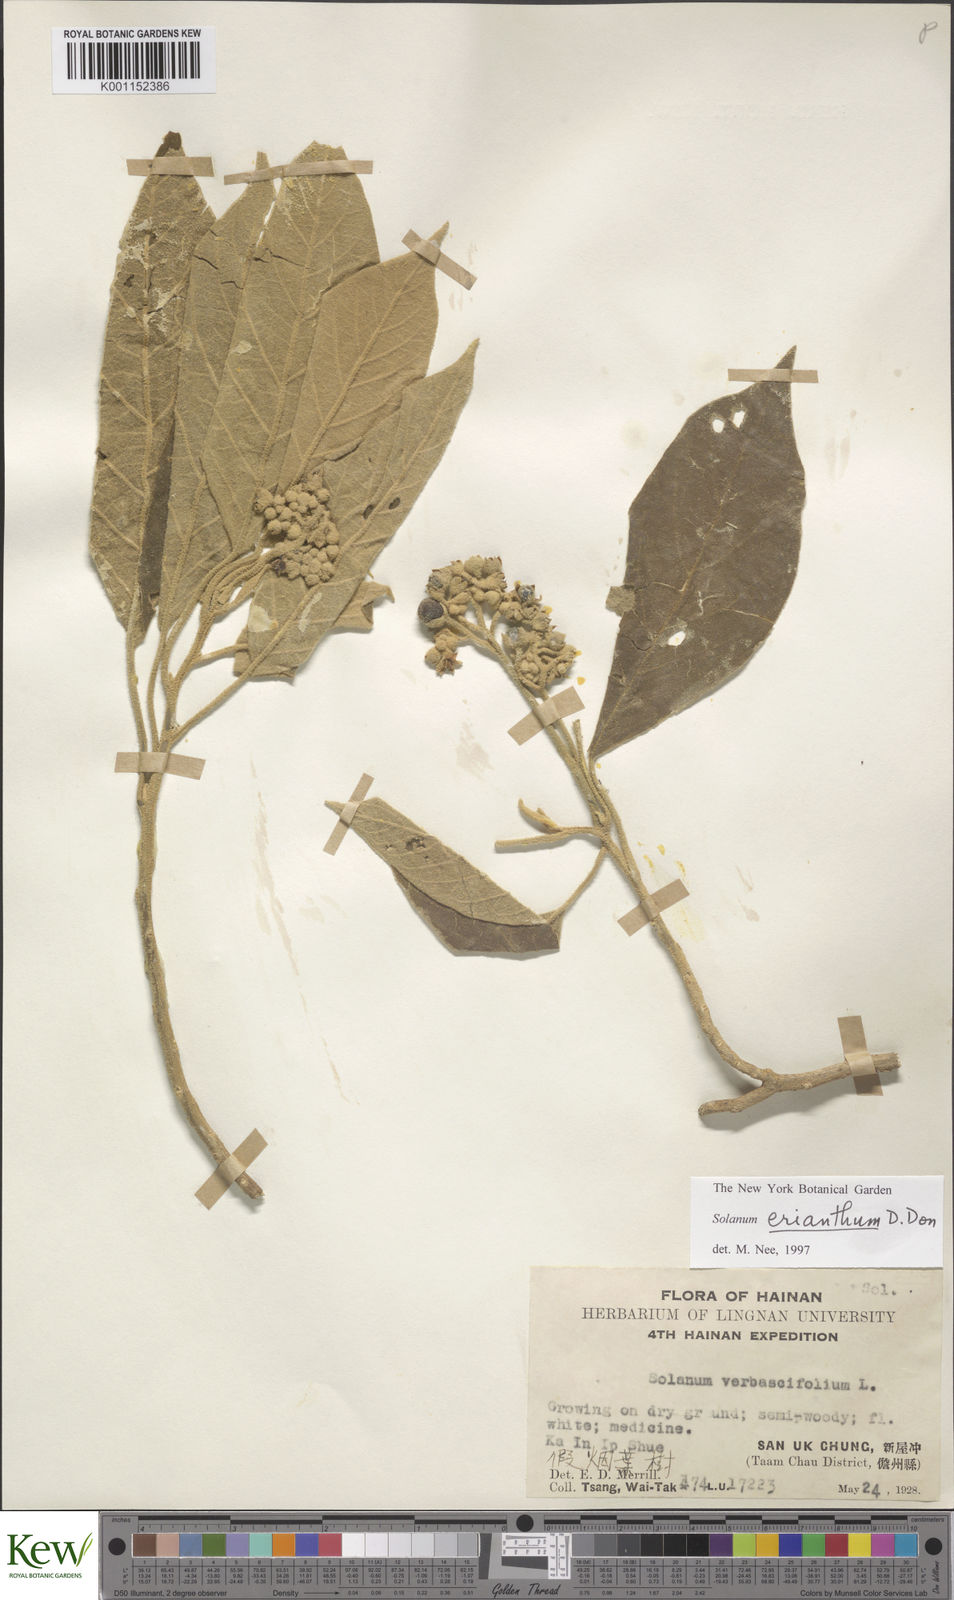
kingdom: Plantae
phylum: Tracheophyta
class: Magnoliopsida
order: Solanales
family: Solanaceae
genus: Solanum
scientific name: Solanum donianum
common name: Mullein nightshade
